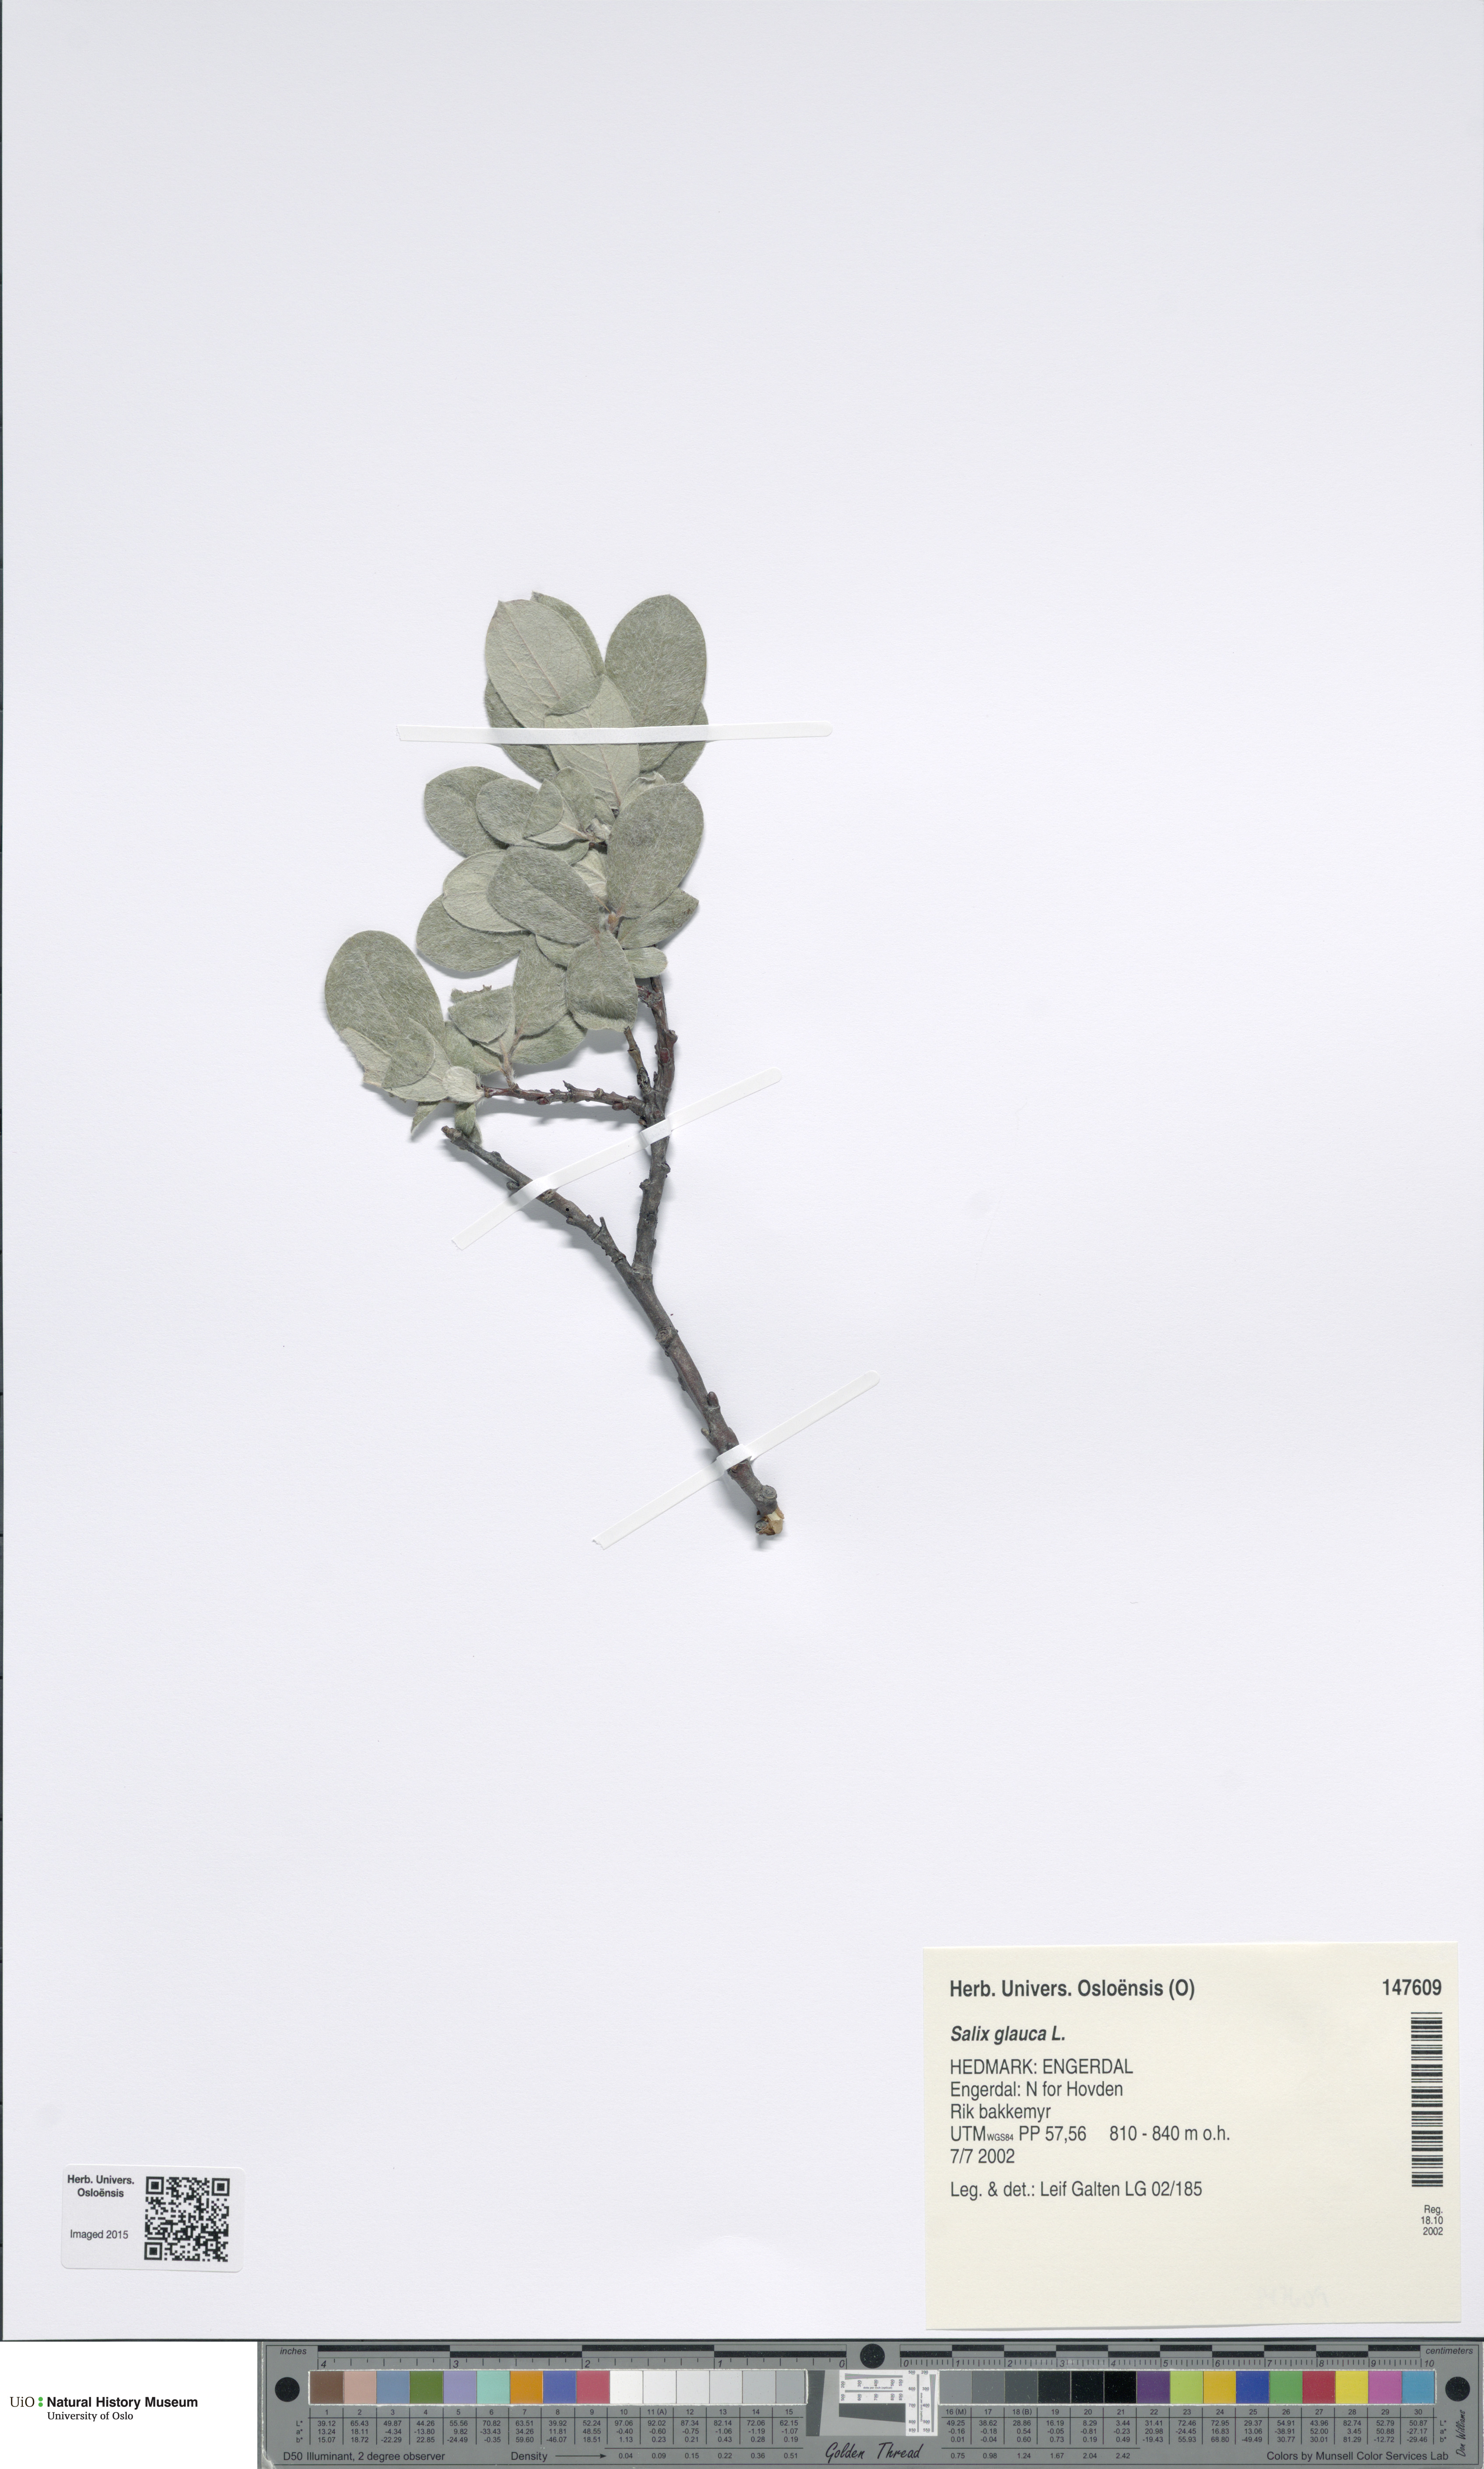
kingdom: Plantae
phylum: Tracheophyta
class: Magnoliopsida
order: Malpighiales
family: Salicaceae
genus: Salix
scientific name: Salix glauca
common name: Glaucous willow
